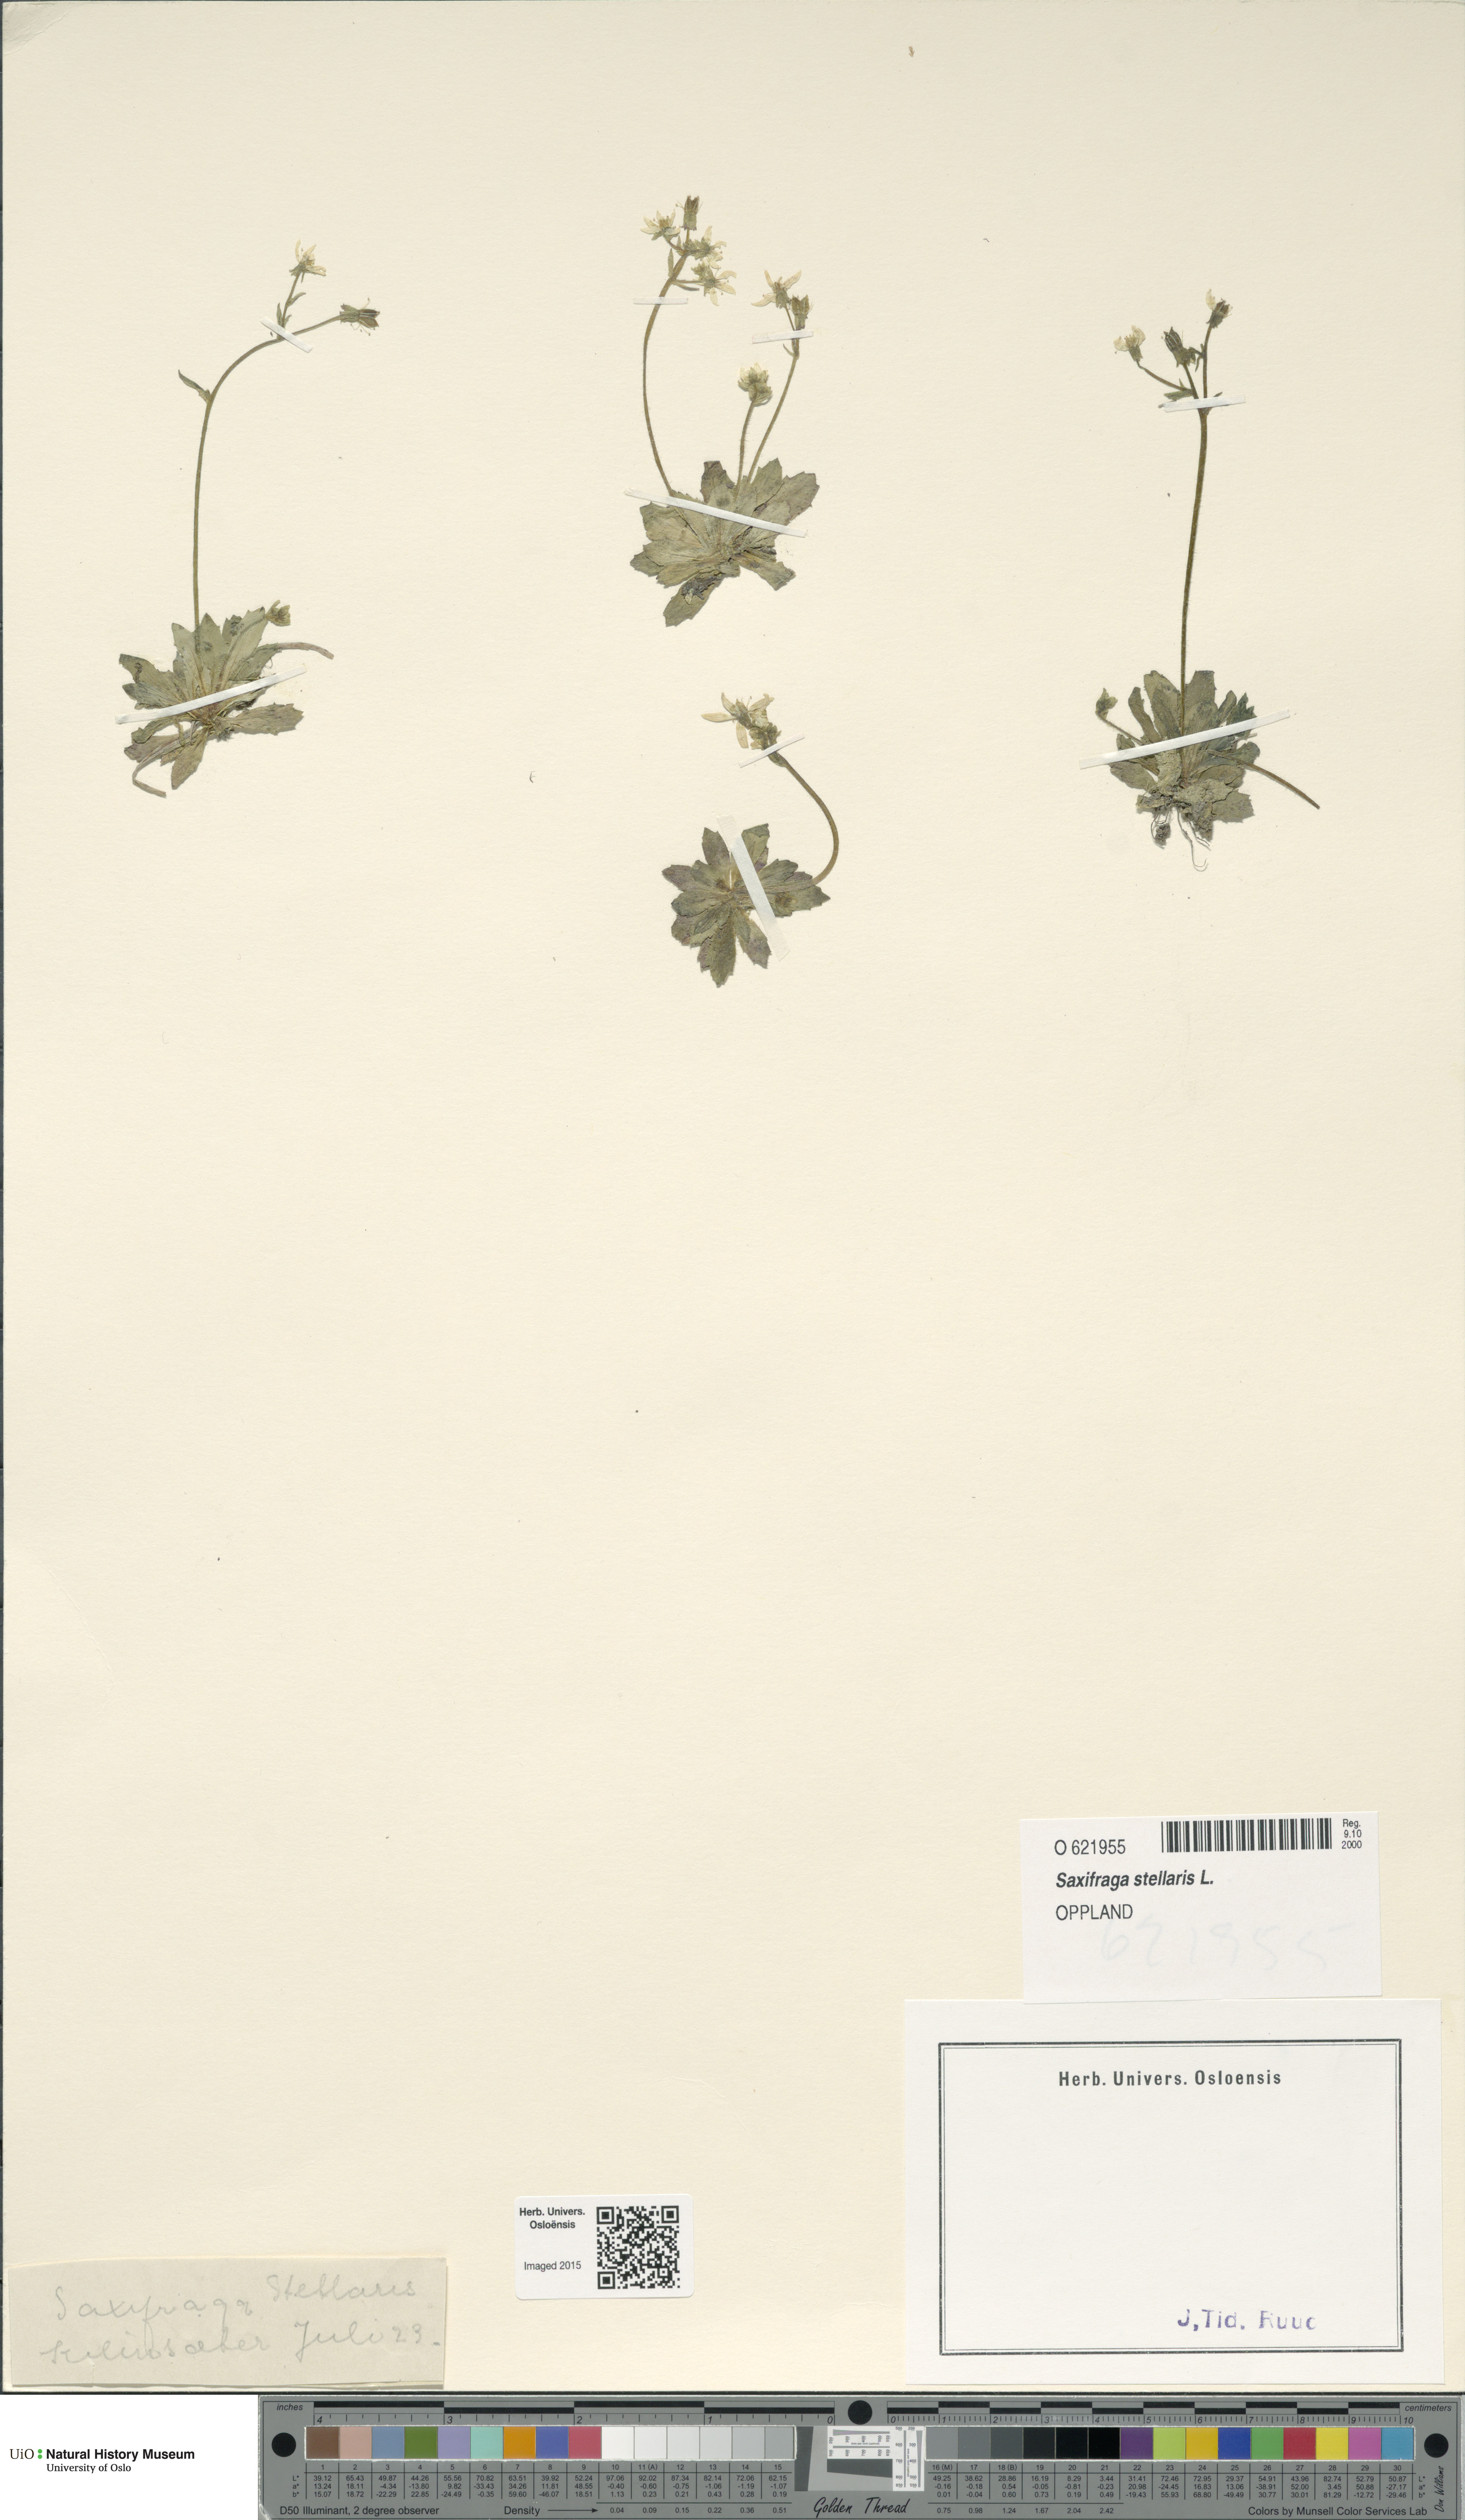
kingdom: Plantae
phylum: Tracheophyta
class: Magnoliopsida
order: Saxifragales
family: Saxifragaceae
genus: Micranthes
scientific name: Micranthes stellaris
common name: Starry saxifrage
